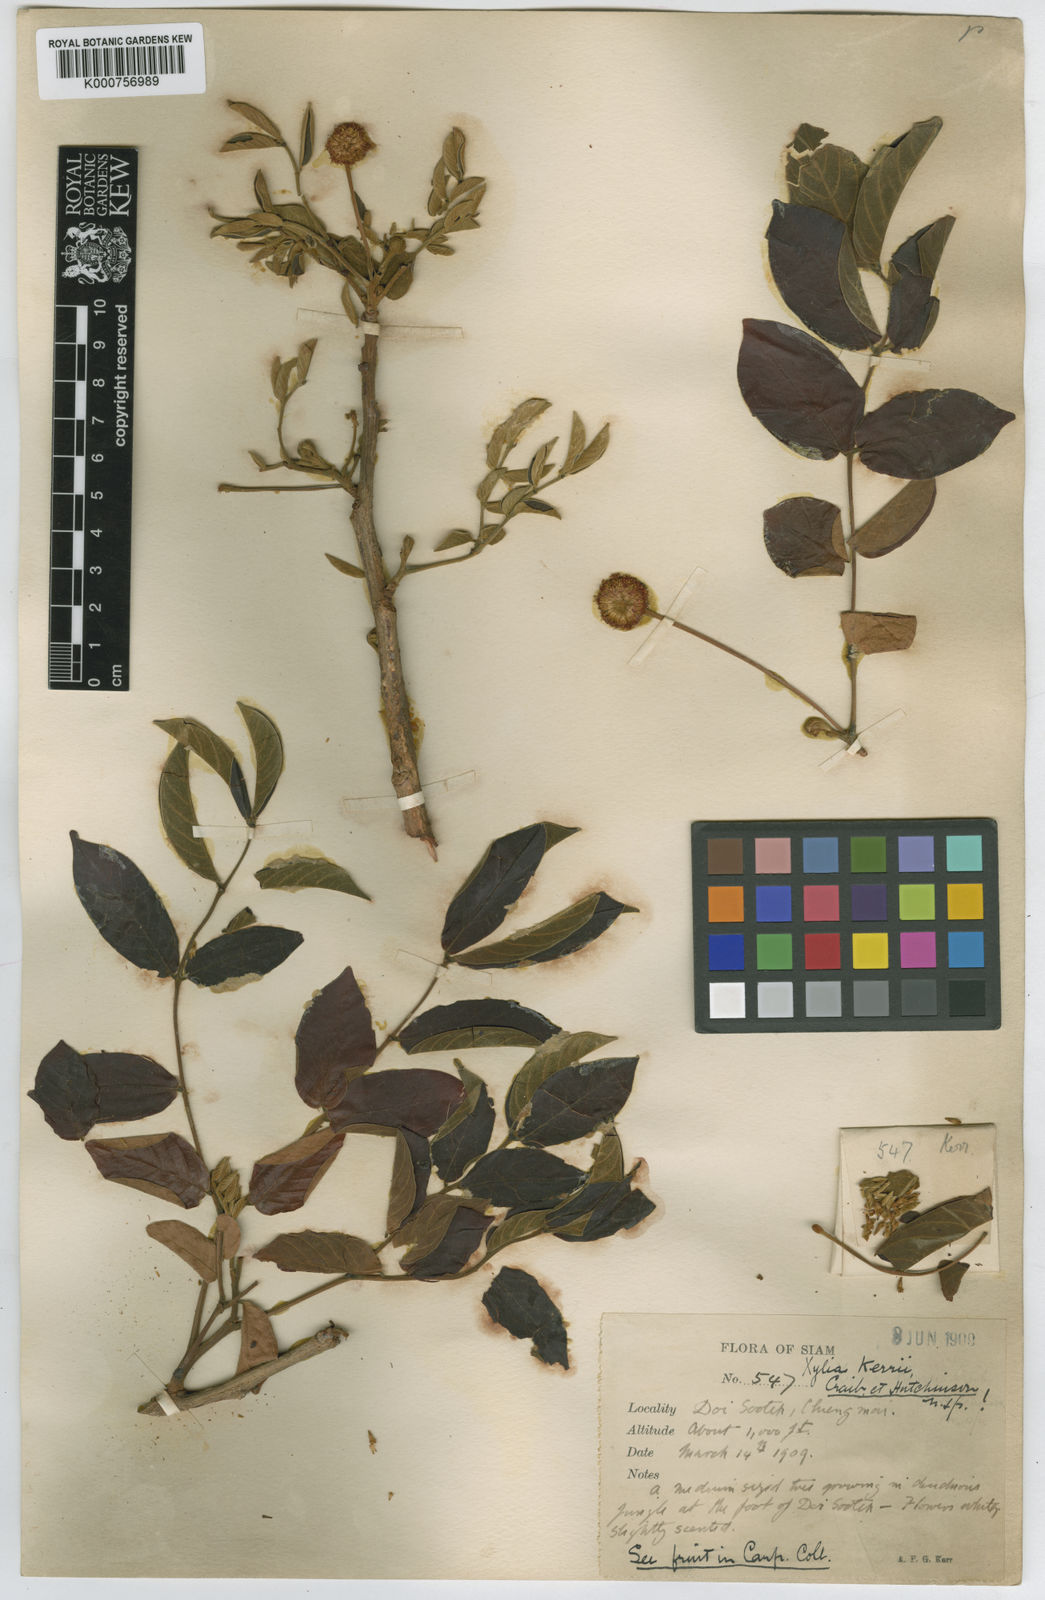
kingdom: Plantae
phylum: Tracheophyta
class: Magnoliopsida
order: Fabales
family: Fabaceae
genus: Xylia
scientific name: Xylia xylocarpa
